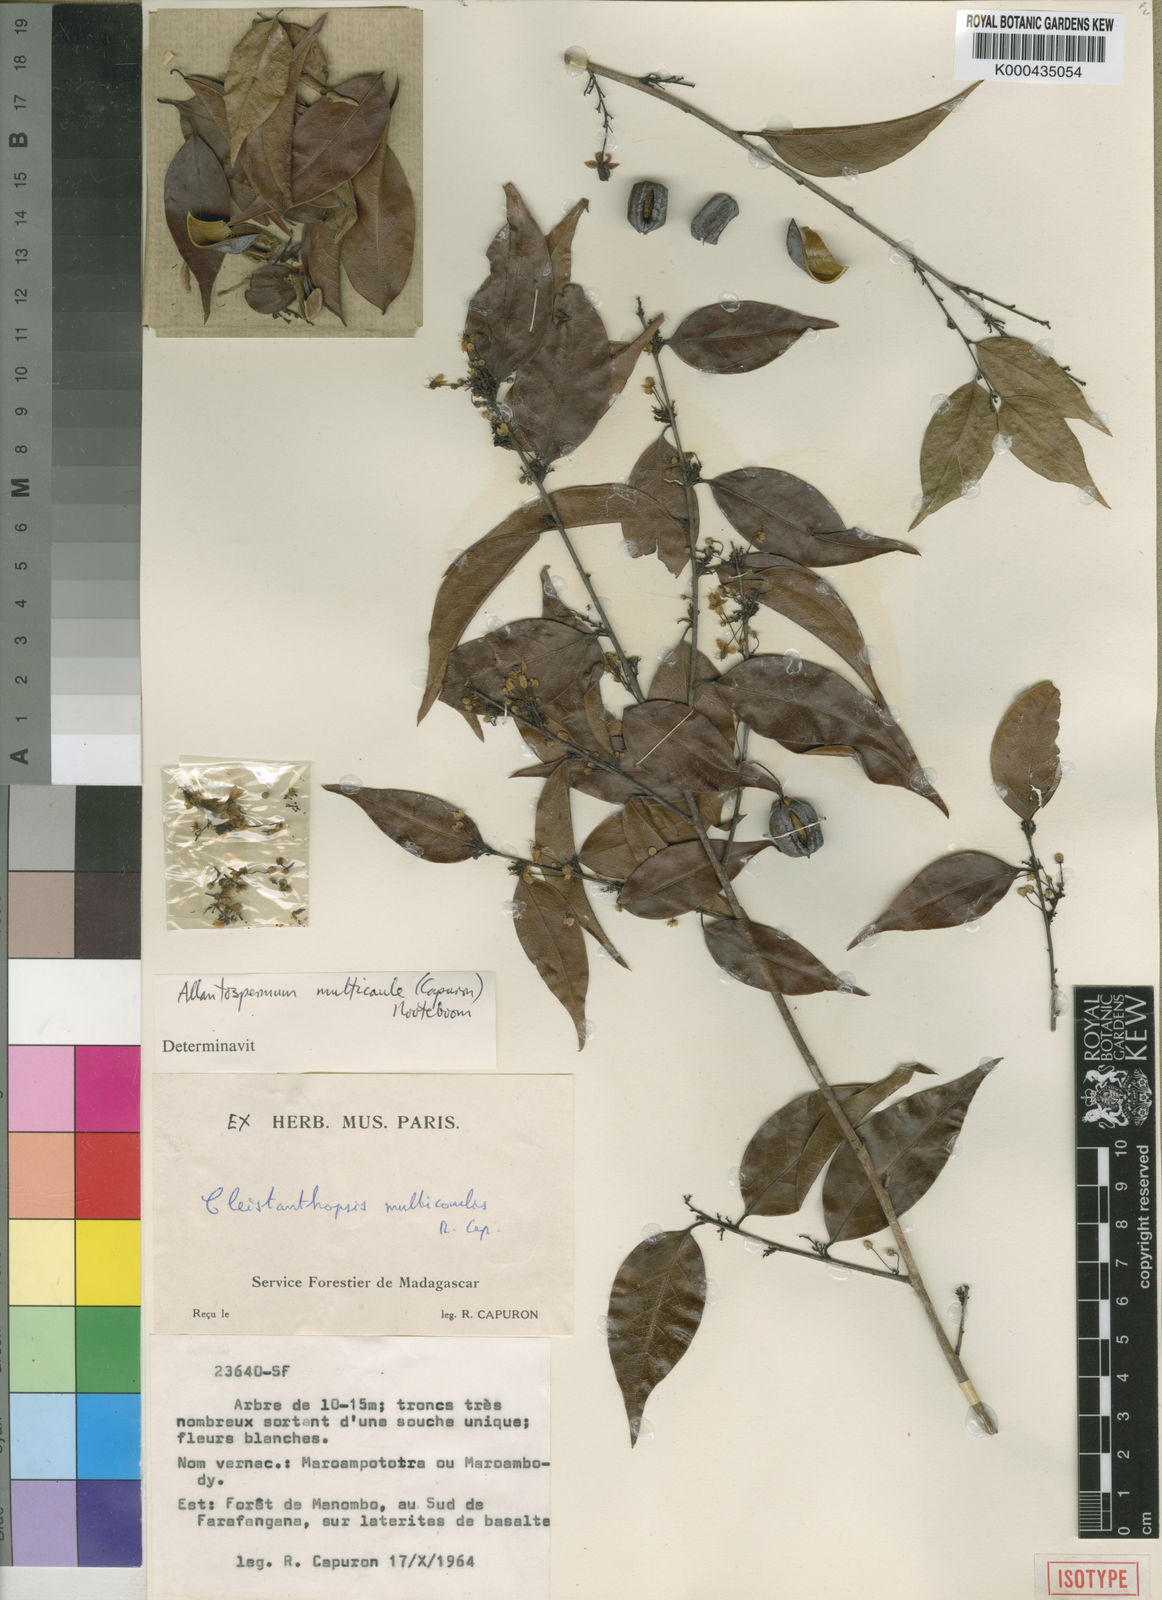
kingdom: Plantae
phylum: Tracheophyta
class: Magnoliopsida
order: Malpighiales
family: Ixonanthaceae
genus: Allantospermum
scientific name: Allantospermum multicaule
